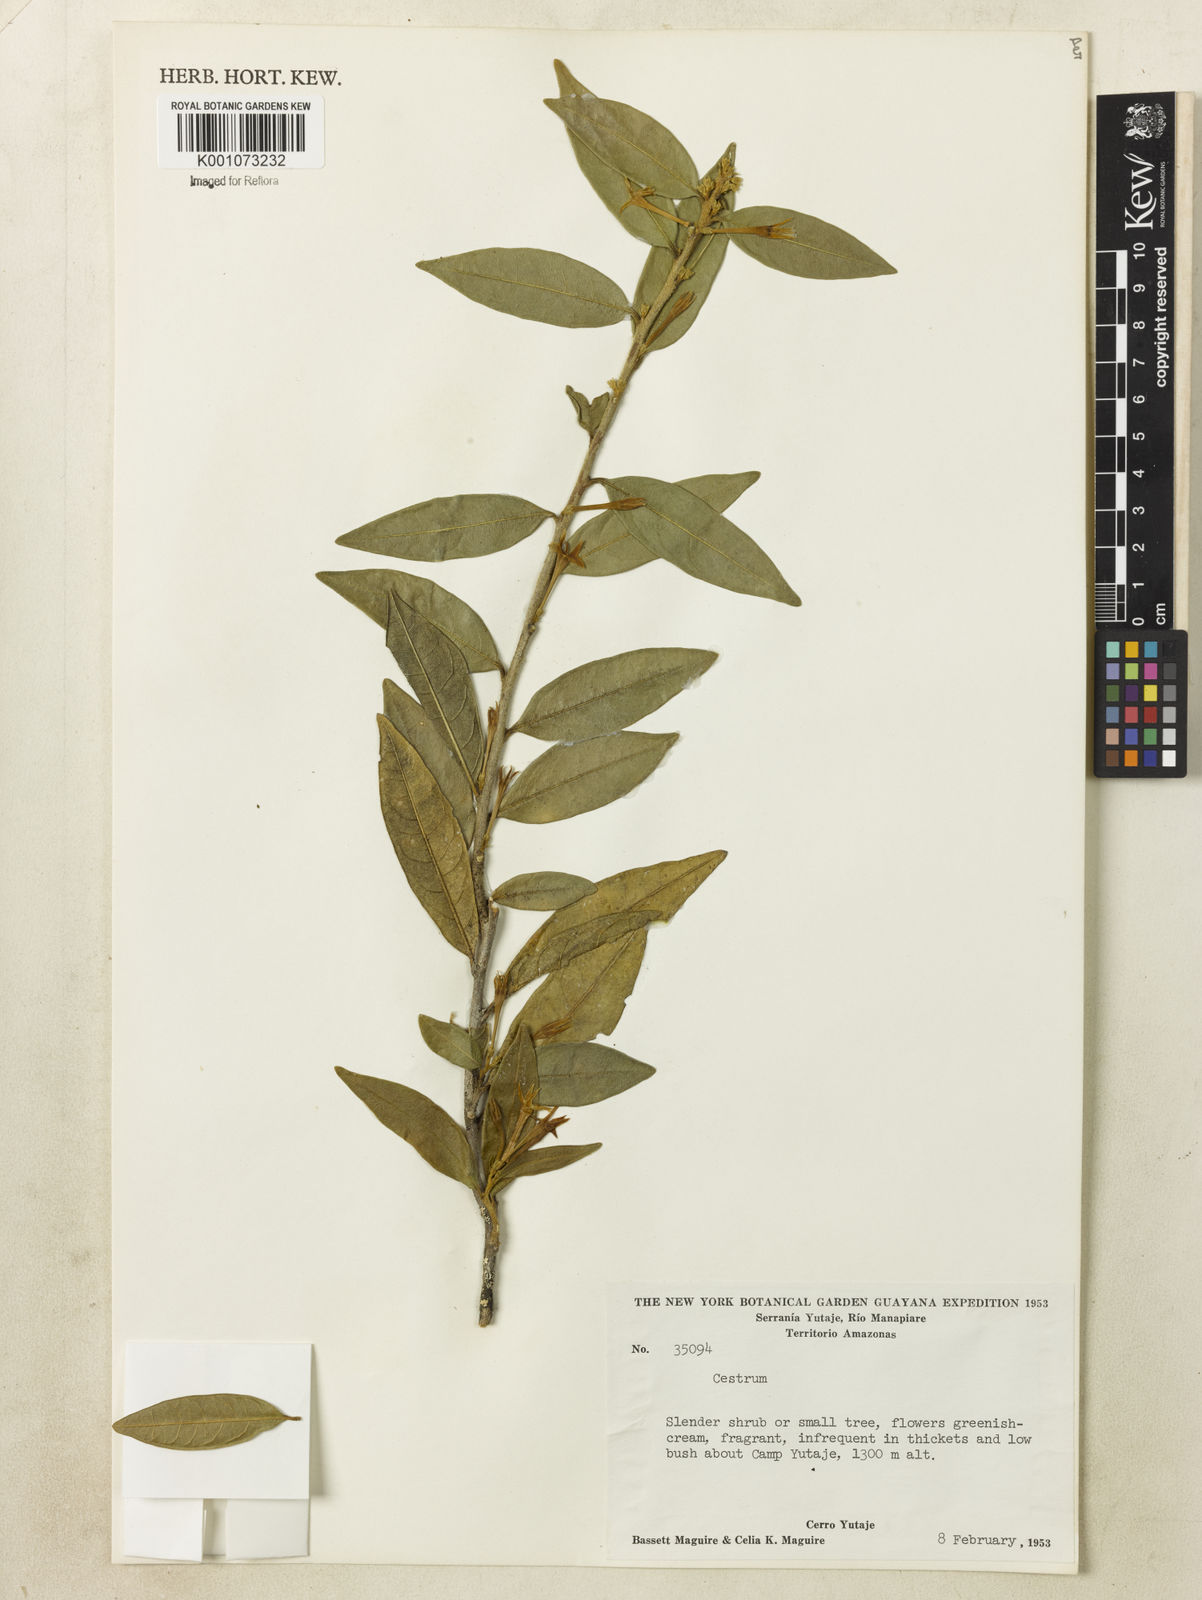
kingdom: Plantae
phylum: Tracheophyta
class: Magnoliopsida
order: Solanales
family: Solanaceae
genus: Cestrum
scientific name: Cestrum
